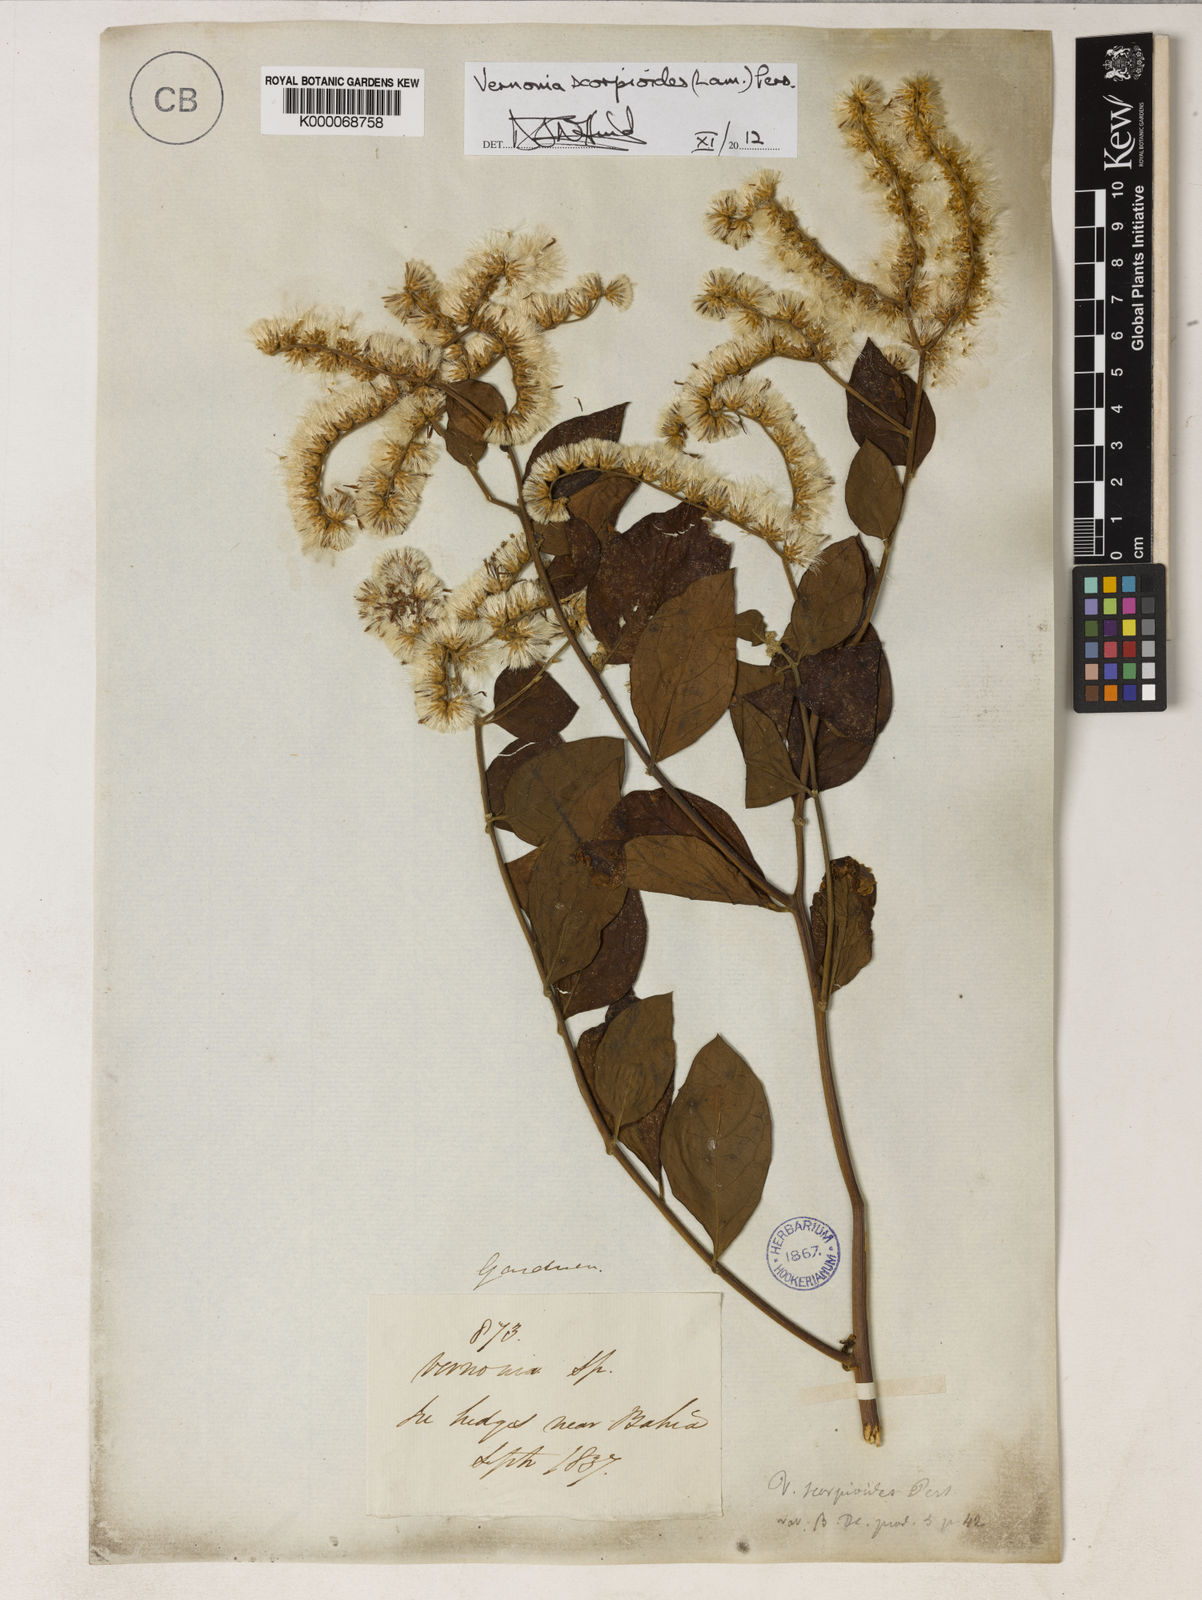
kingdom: Plantae
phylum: Tracheophyta
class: Magnoliopsida
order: Asterales
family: Asteraceae
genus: Cyrtocymura
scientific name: Cyrtocymura scorpioides
